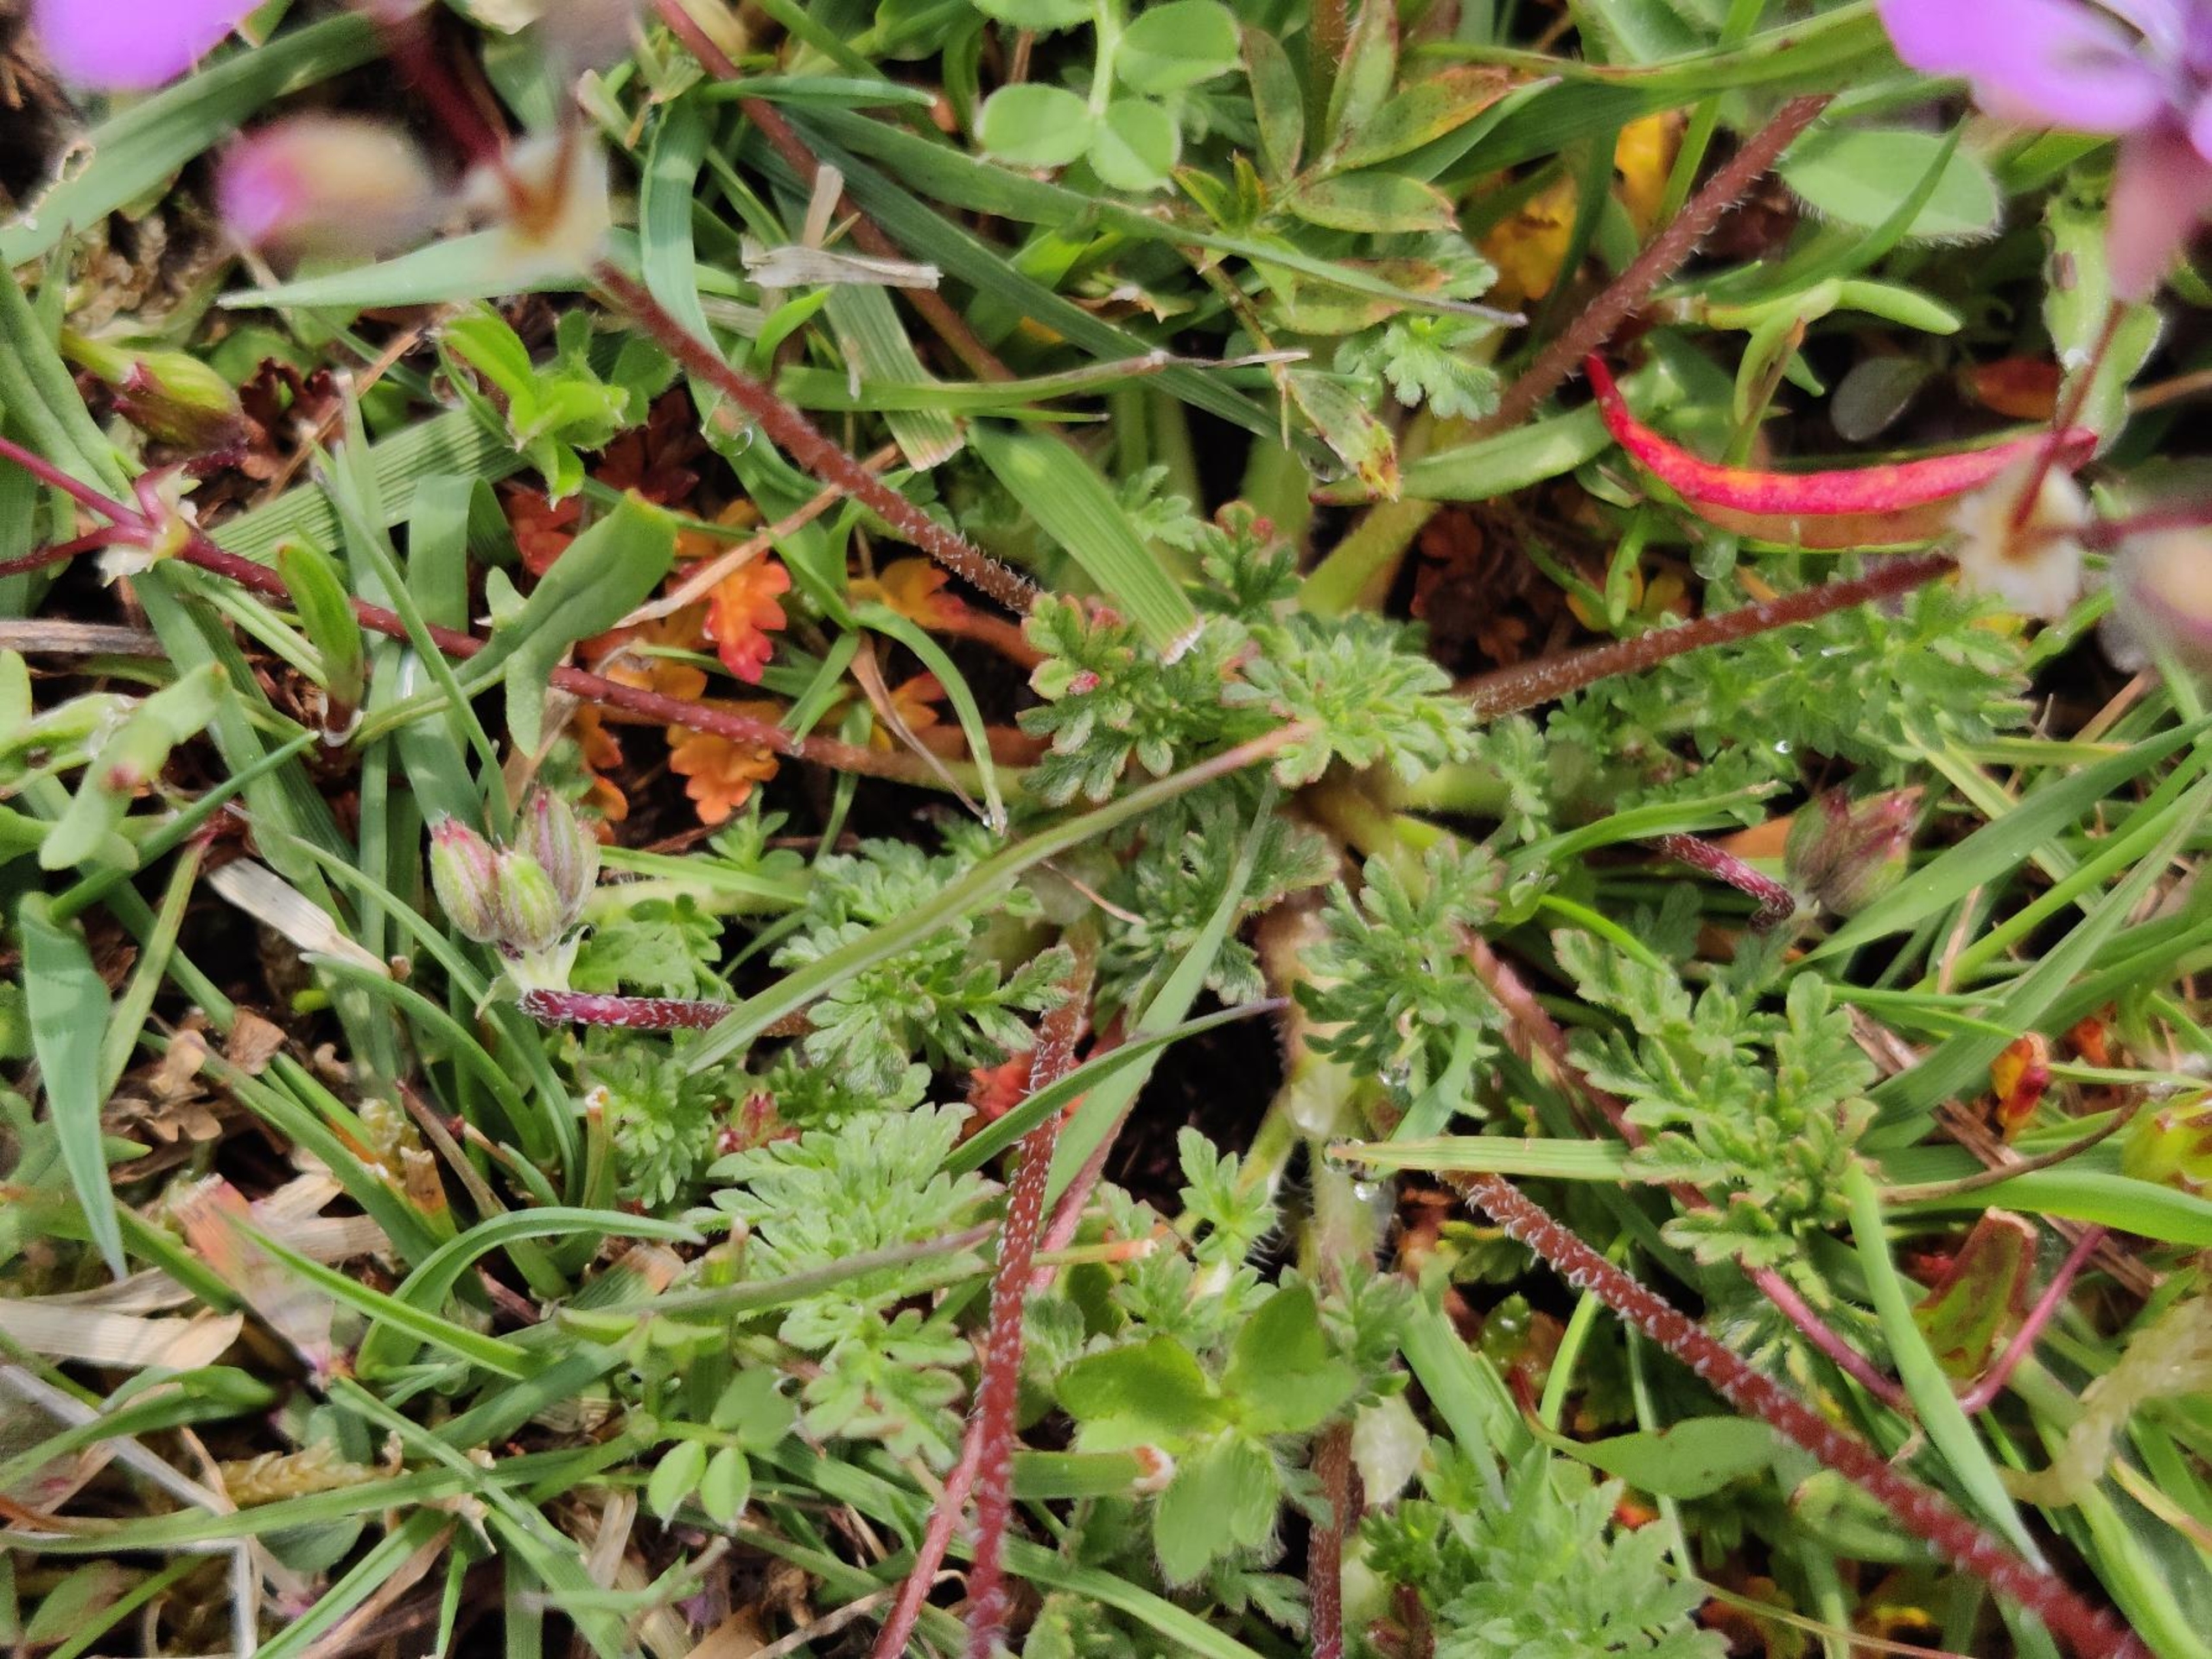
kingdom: Plantae
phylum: Tracheophyta
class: Magnoliopsida
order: Geraniales
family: Geraniaceae
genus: Erodium
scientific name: Erodium cicutarium
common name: Hejrenæb
